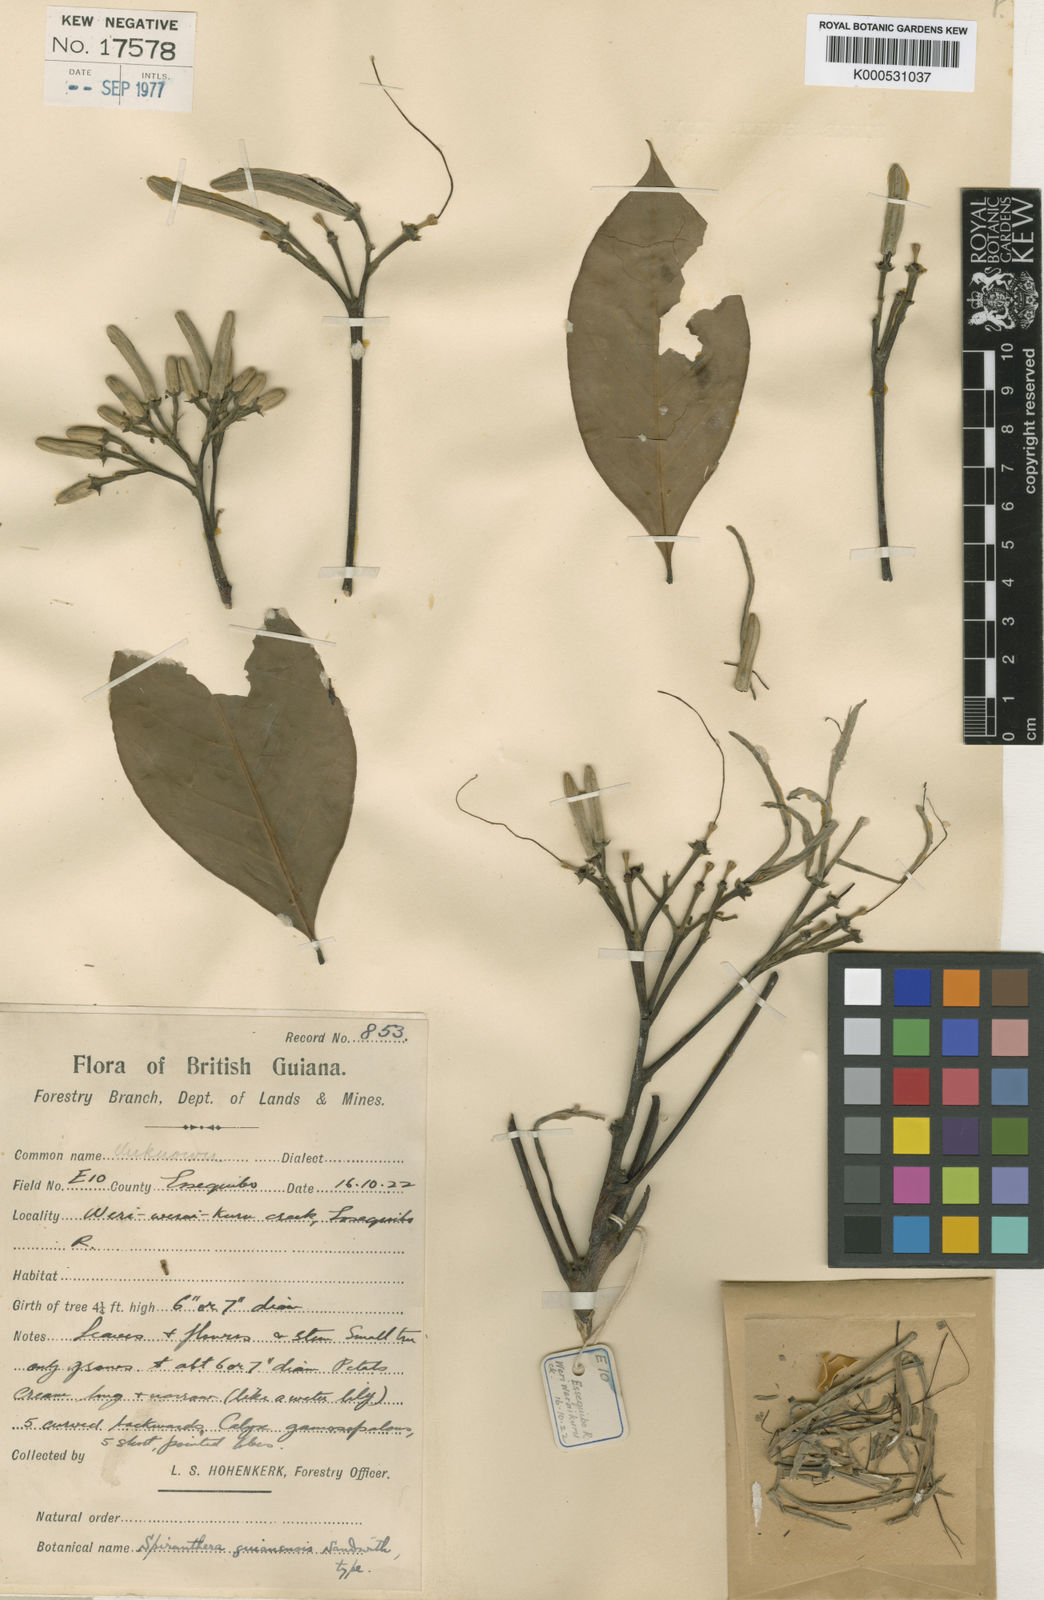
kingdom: Plantae
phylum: Tracheophyta
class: Magnoliopsida
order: Sapindales
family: Rutaceae
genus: Spiranthera
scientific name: Spiranthera guianensis
